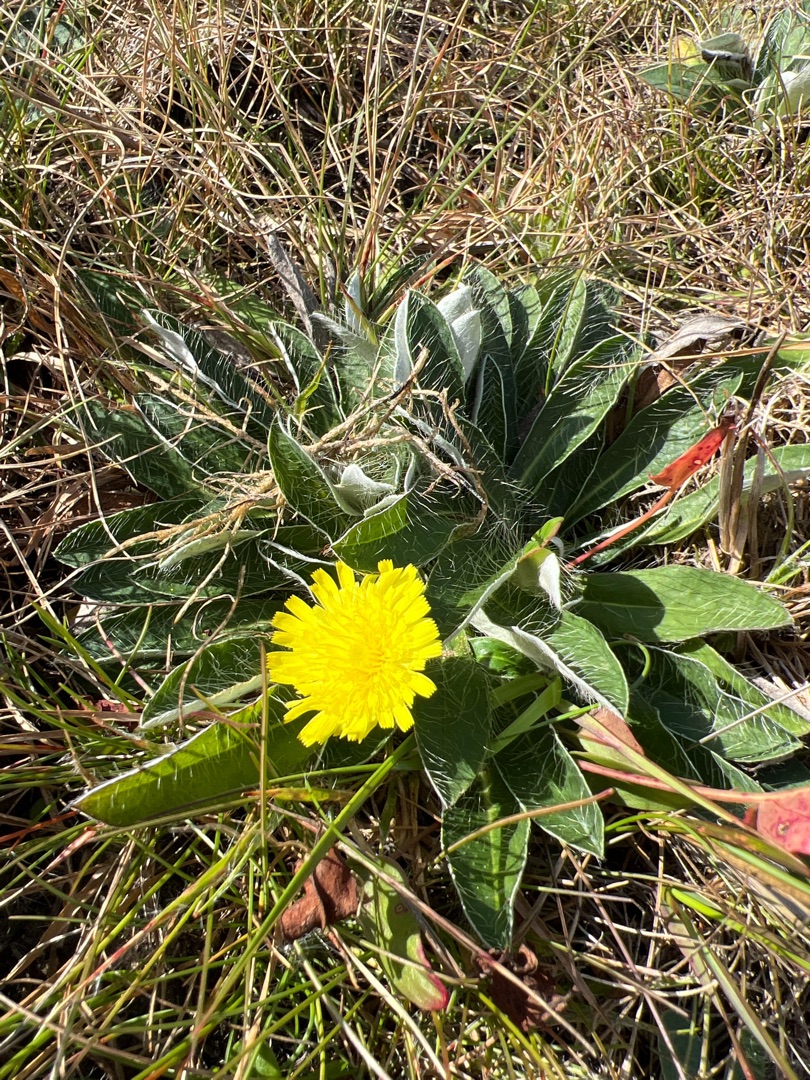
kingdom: Plantae
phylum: Tracheophyta
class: Magnoliopsida
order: Asterales
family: Asteraceae
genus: Pilosella
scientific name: Pilosella officinarum
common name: Håret høgeurt
